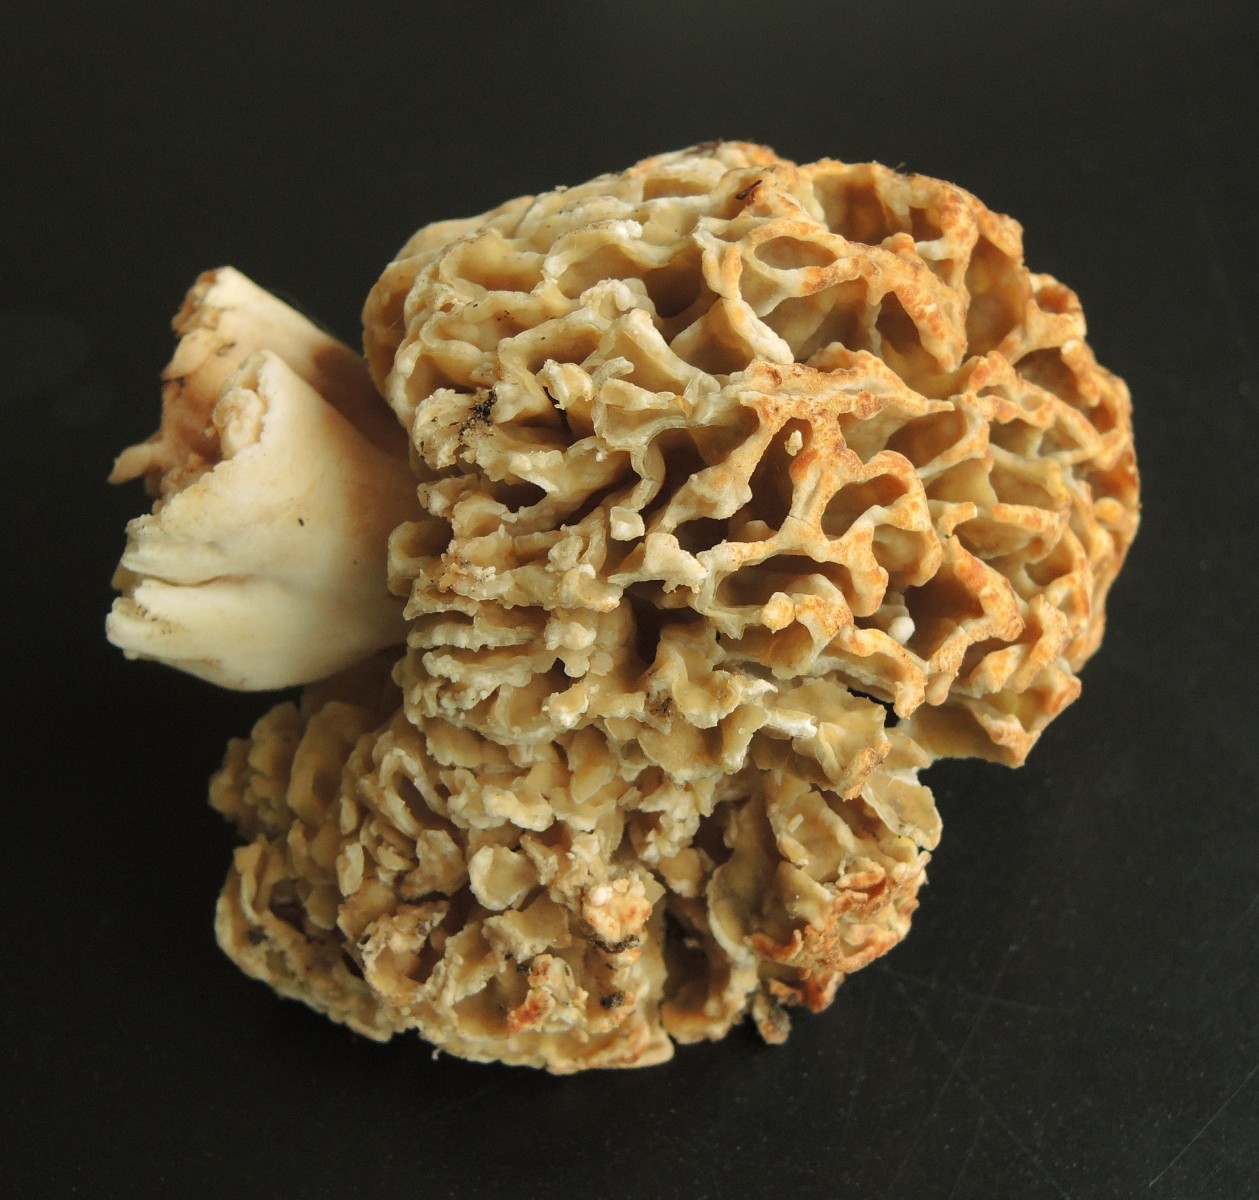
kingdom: Fungi
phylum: Ascomycota
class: Pezizomycetes
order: Pezizales
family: Morchellaceae
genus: Morchella
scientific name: Morchella esculenta
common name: spiselig morkel
